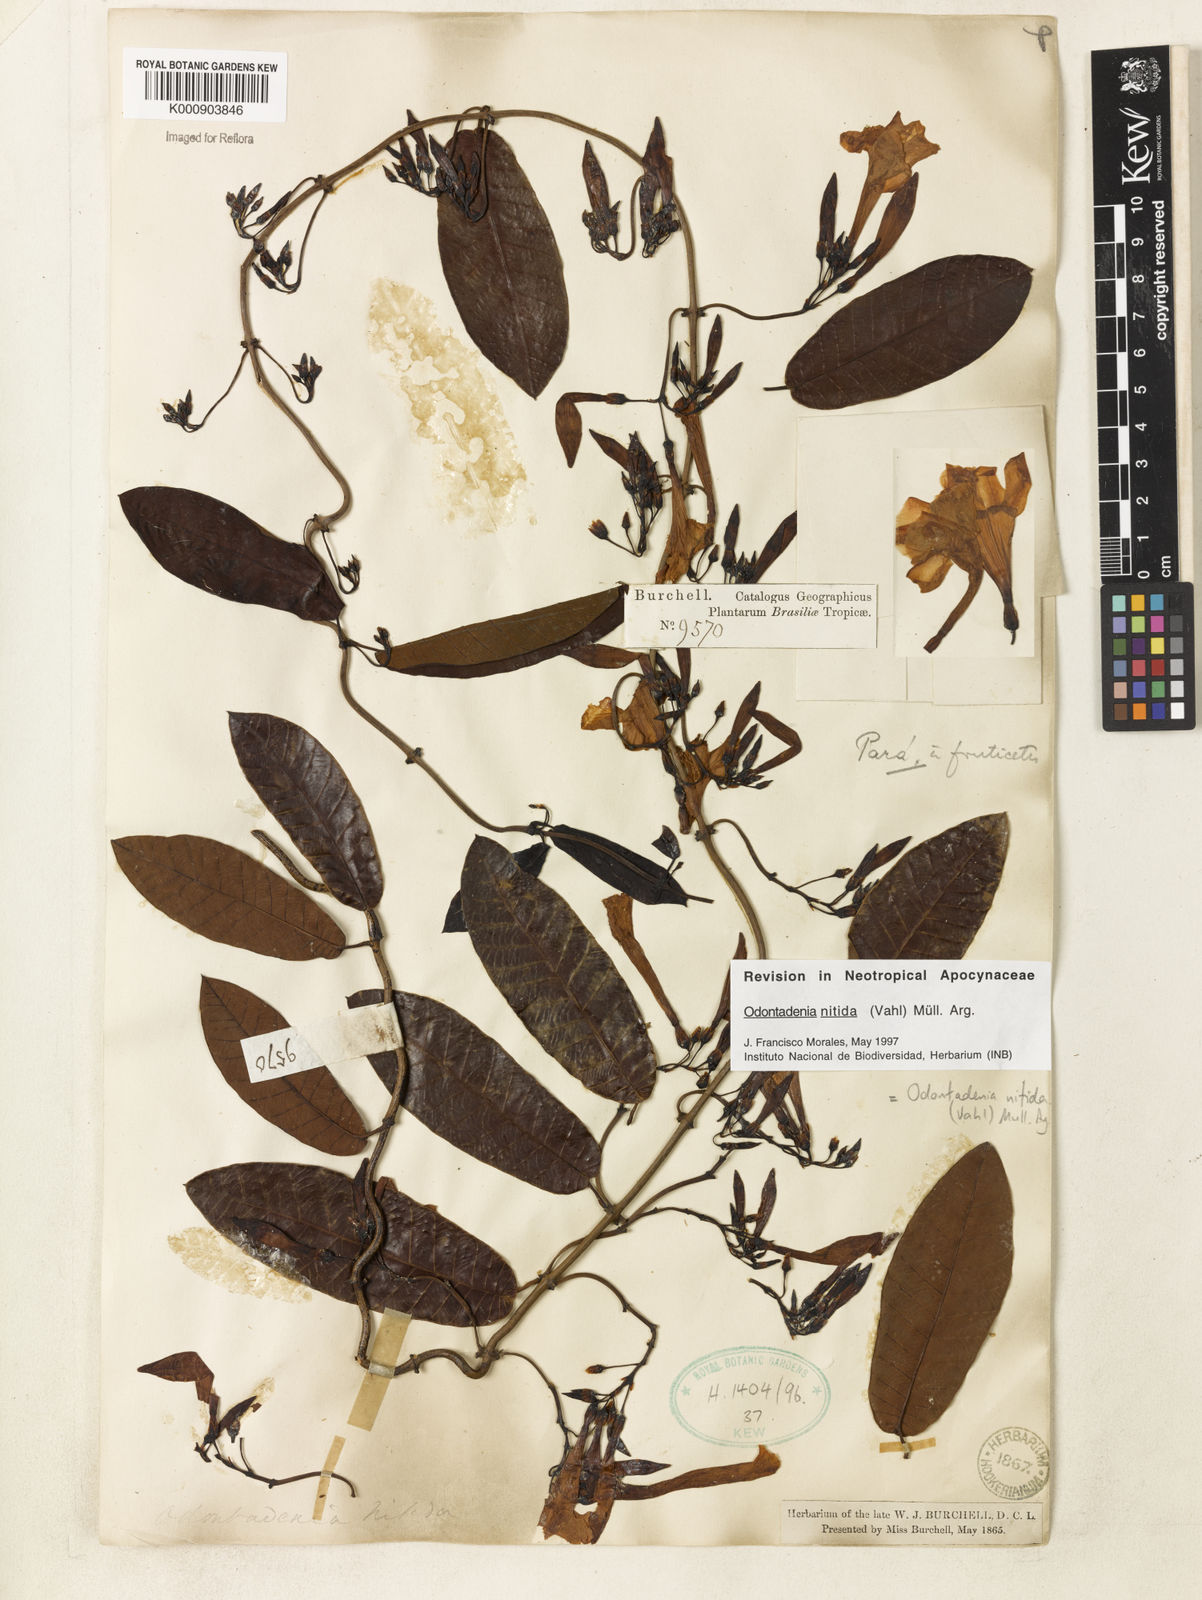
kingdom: Plantae
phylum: Tracheophyta
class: Magnoliopsida
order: Gentianales
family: Apocynaceae
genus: Odontadenia
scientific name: Odontadenia
